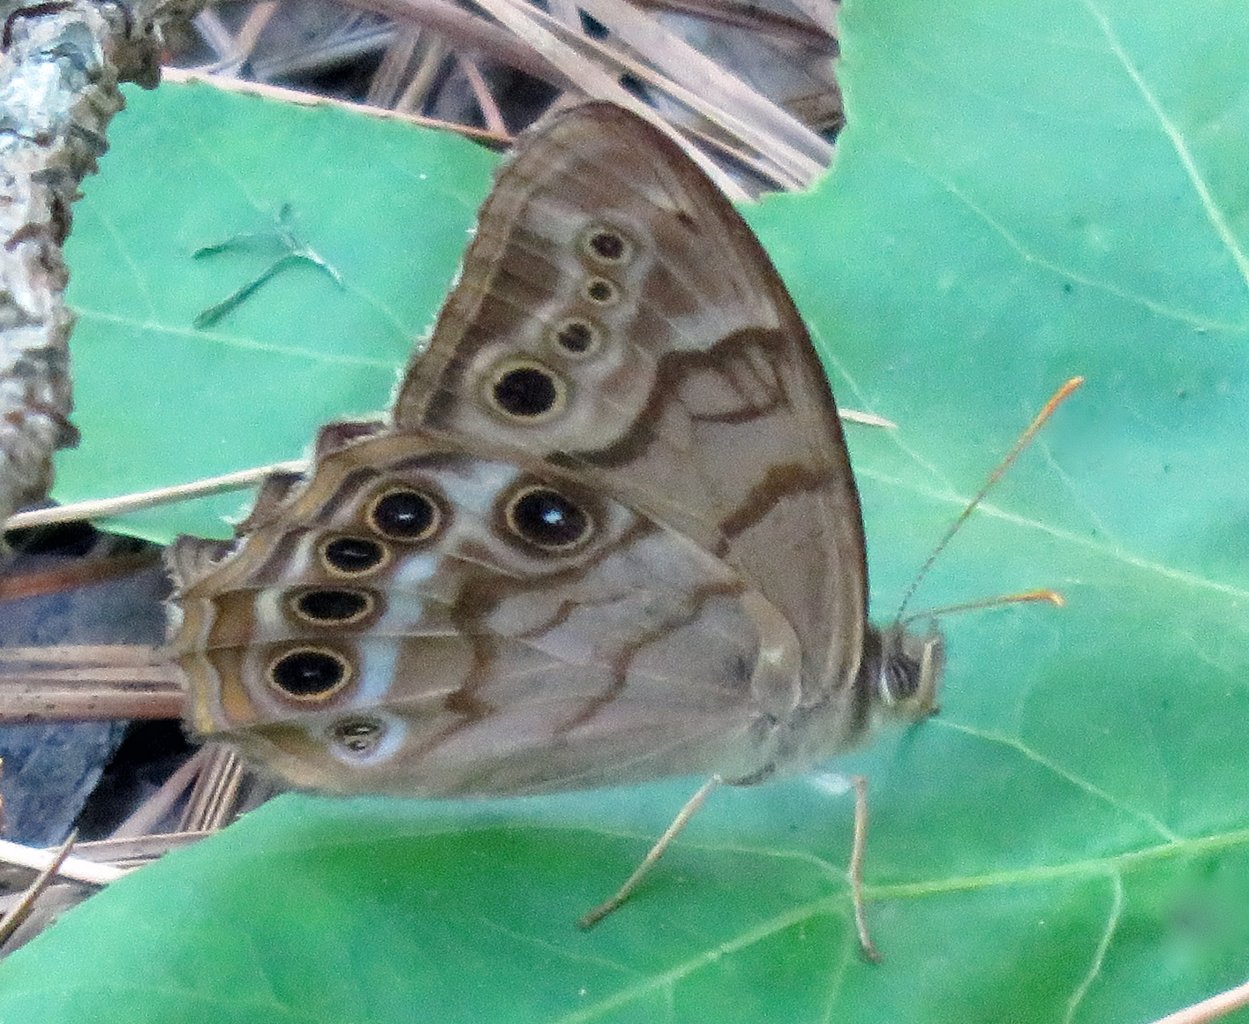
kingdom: Animalia
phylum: Arthropoda
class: Insecta
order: Lepidoptera
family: Nymphalidae
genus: Enodia
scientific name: Enodia portlandia
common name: Southern Pearly Eye
